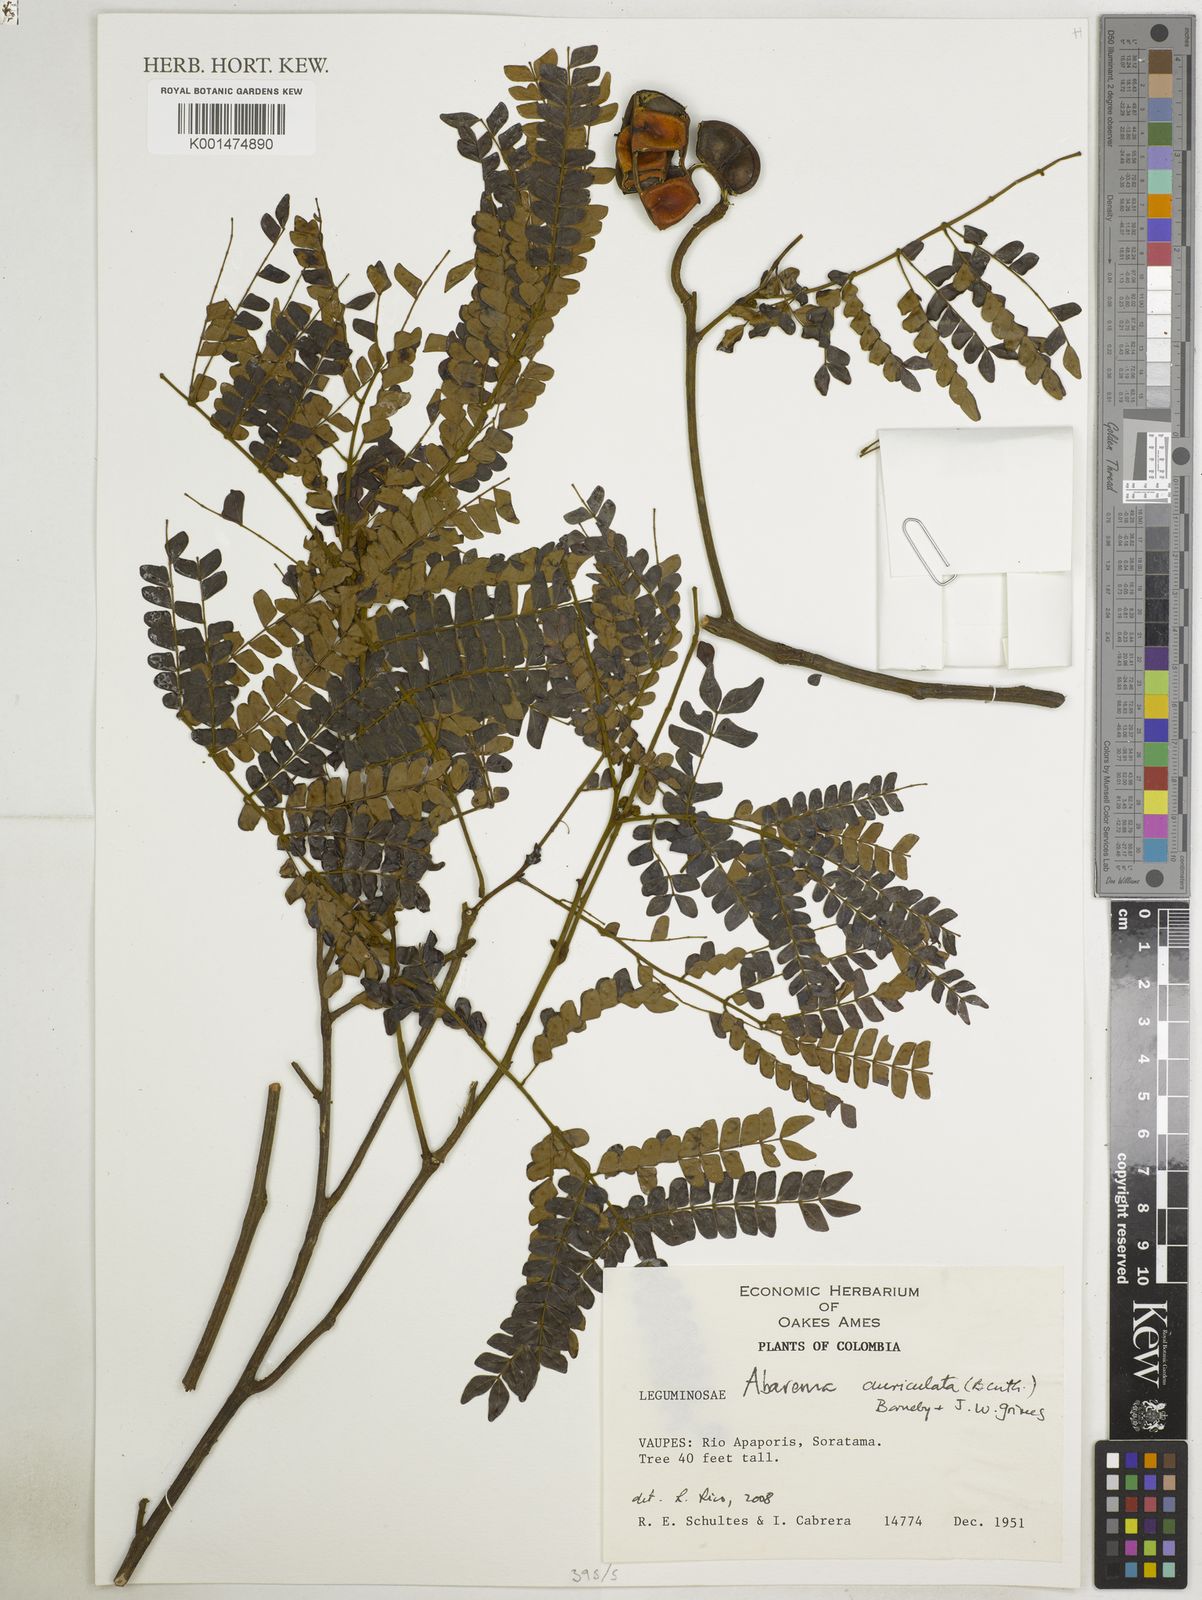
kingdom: Plantae
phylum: Tracheophyta
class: Magnoliopsida
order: Fabales
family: Fabaceae
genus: Jupunba
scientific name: Jupunba auriculata
